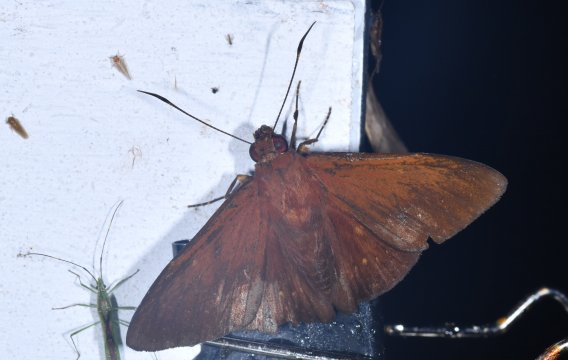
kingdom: Animalia
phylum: Arthropoda
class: Insecta
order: Lepidoptera
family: Hesperiidae
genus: Dyscophellus
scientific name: Dyscophellus nicephorus
